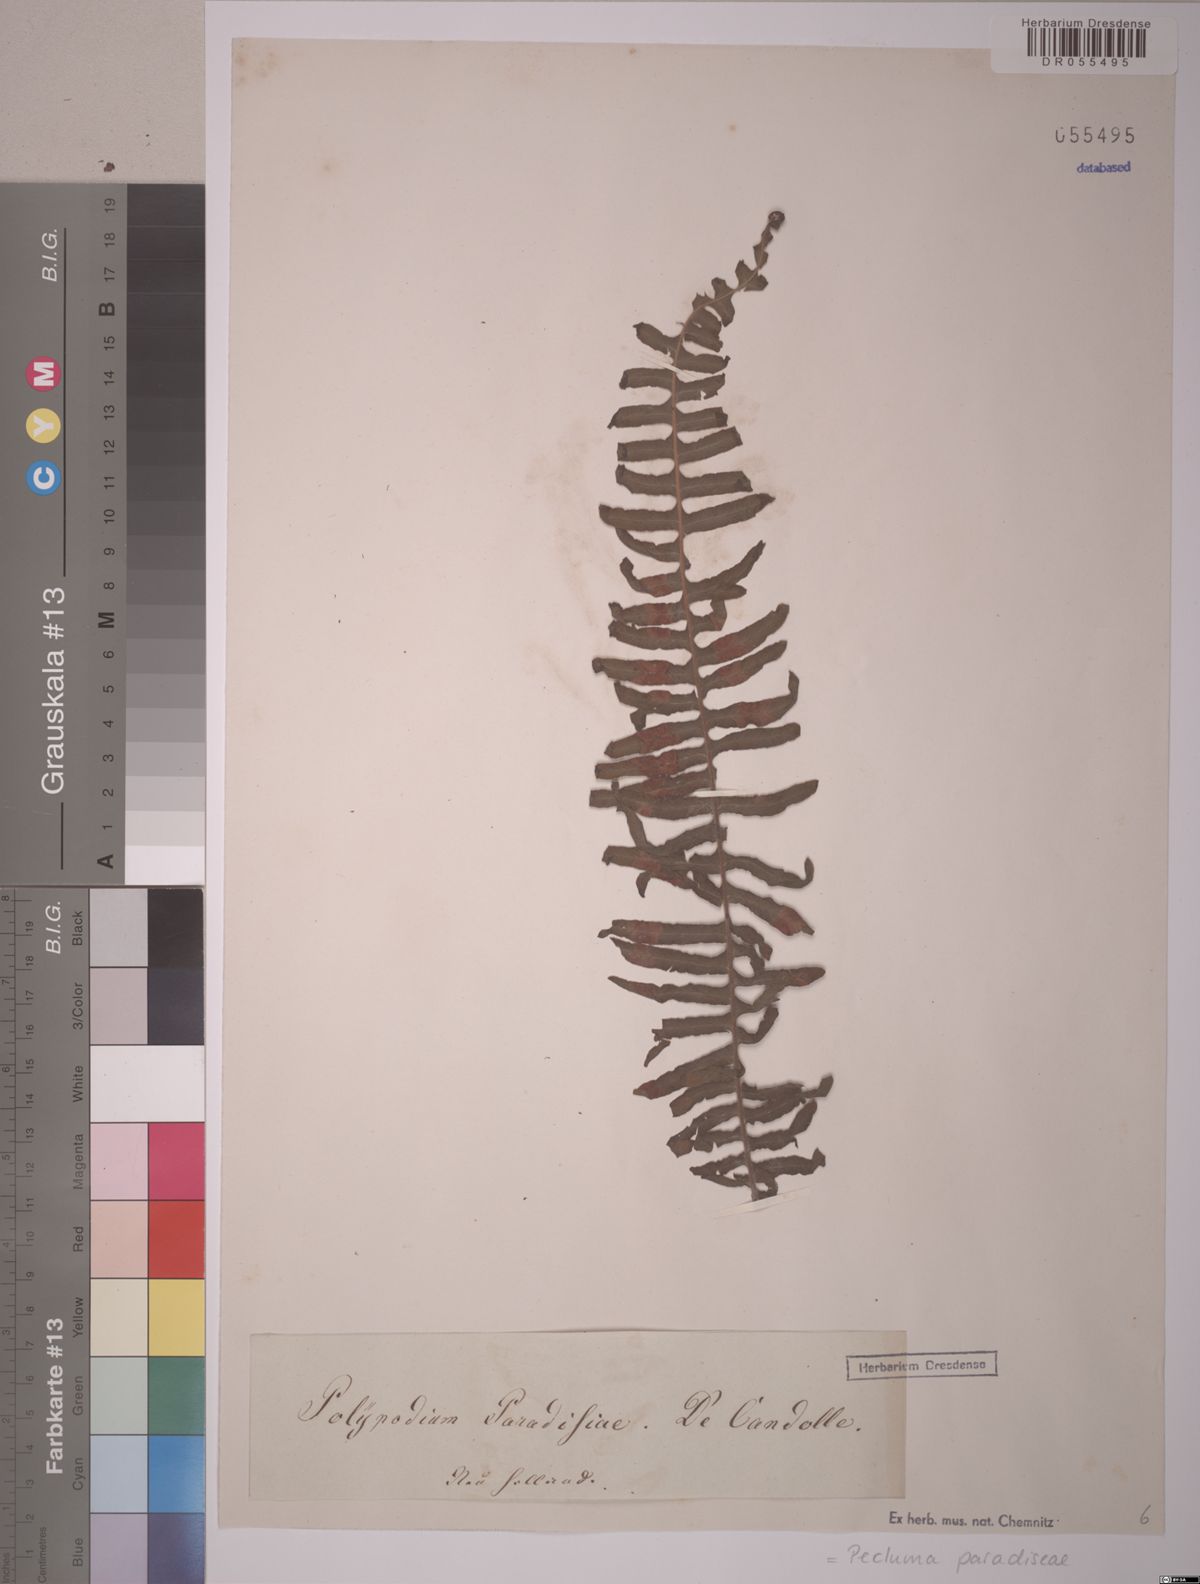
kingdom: Plantae
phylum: Tracheophyta
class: Polypodiopsida
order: Polypodiales
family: Polypodiaceae
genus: Pecluma
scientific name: Pecluma paradiseae
